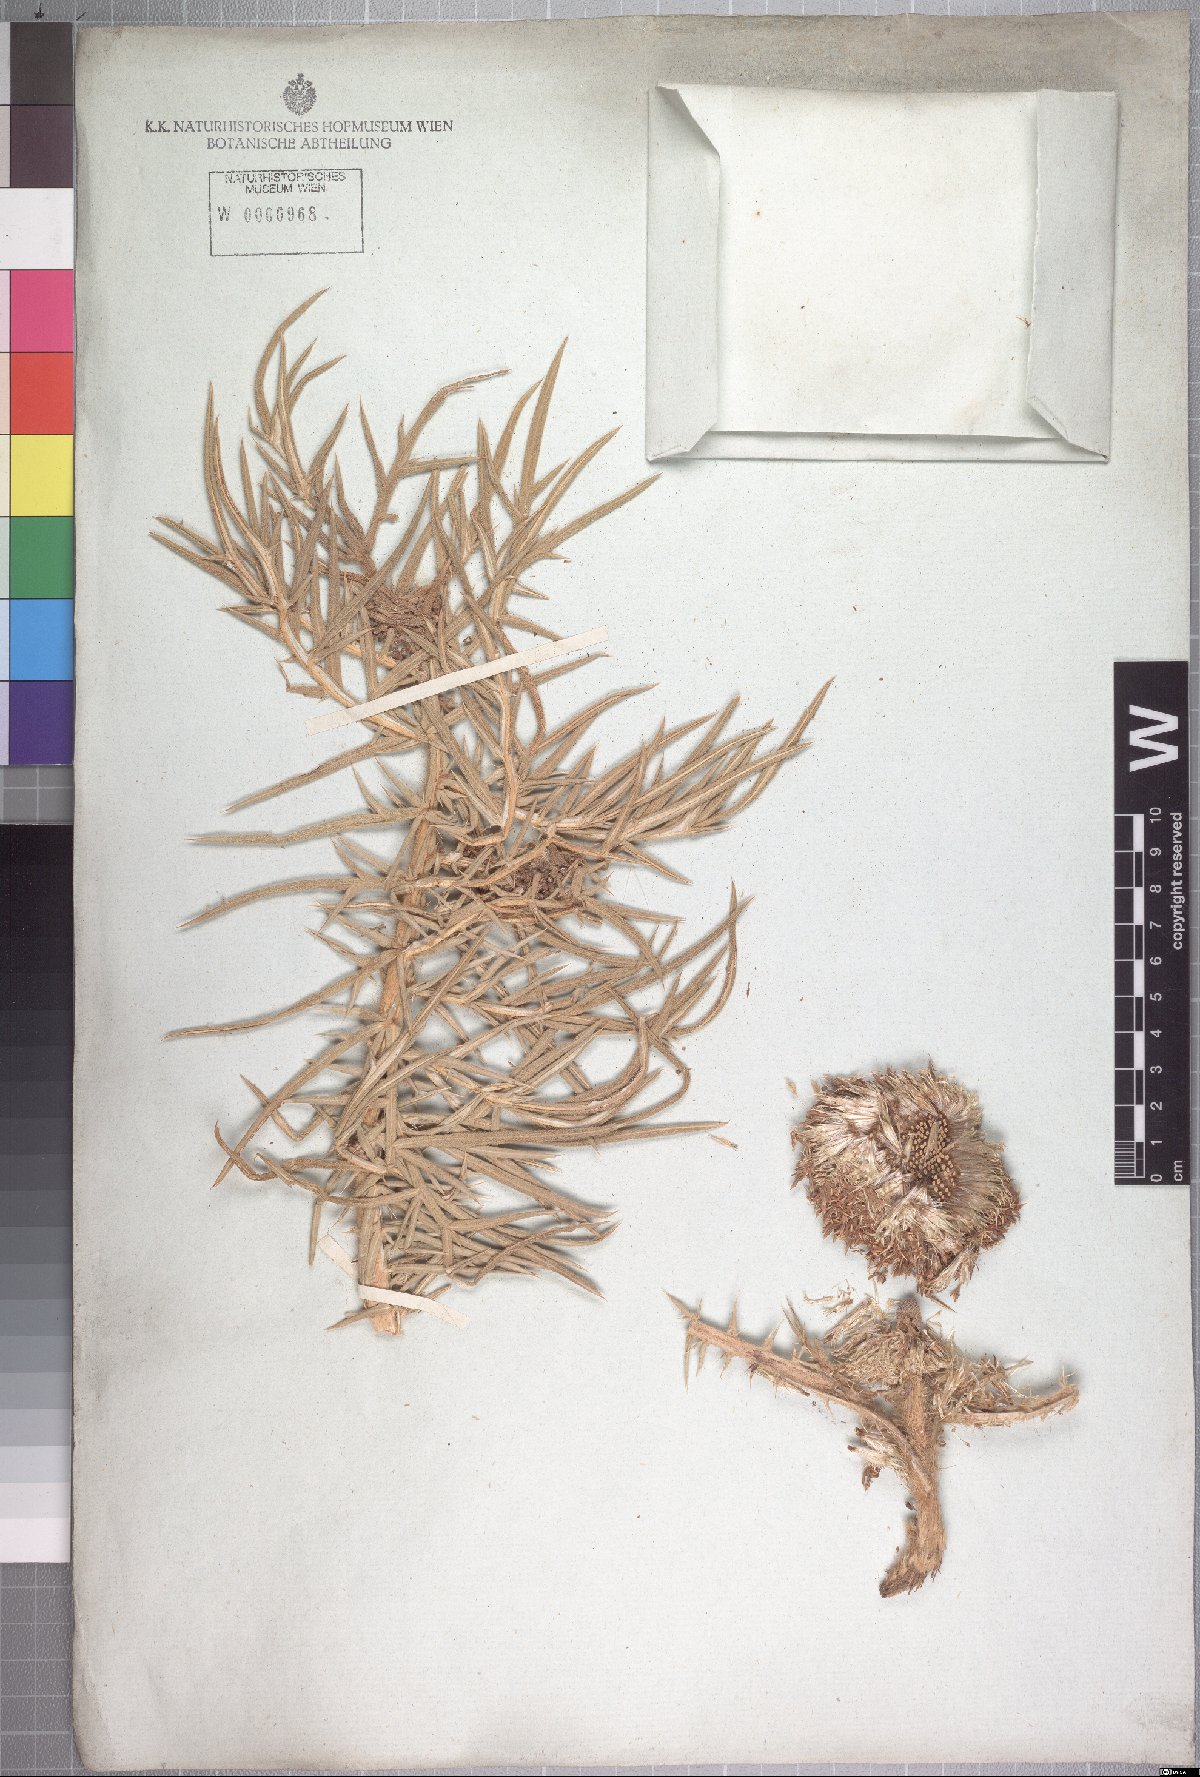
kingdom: Plantae
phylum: Tracheophyta
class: Magnoliopsida
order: Asterales
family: Asteraceae
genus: Echinops
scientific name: Echinops hispidus
